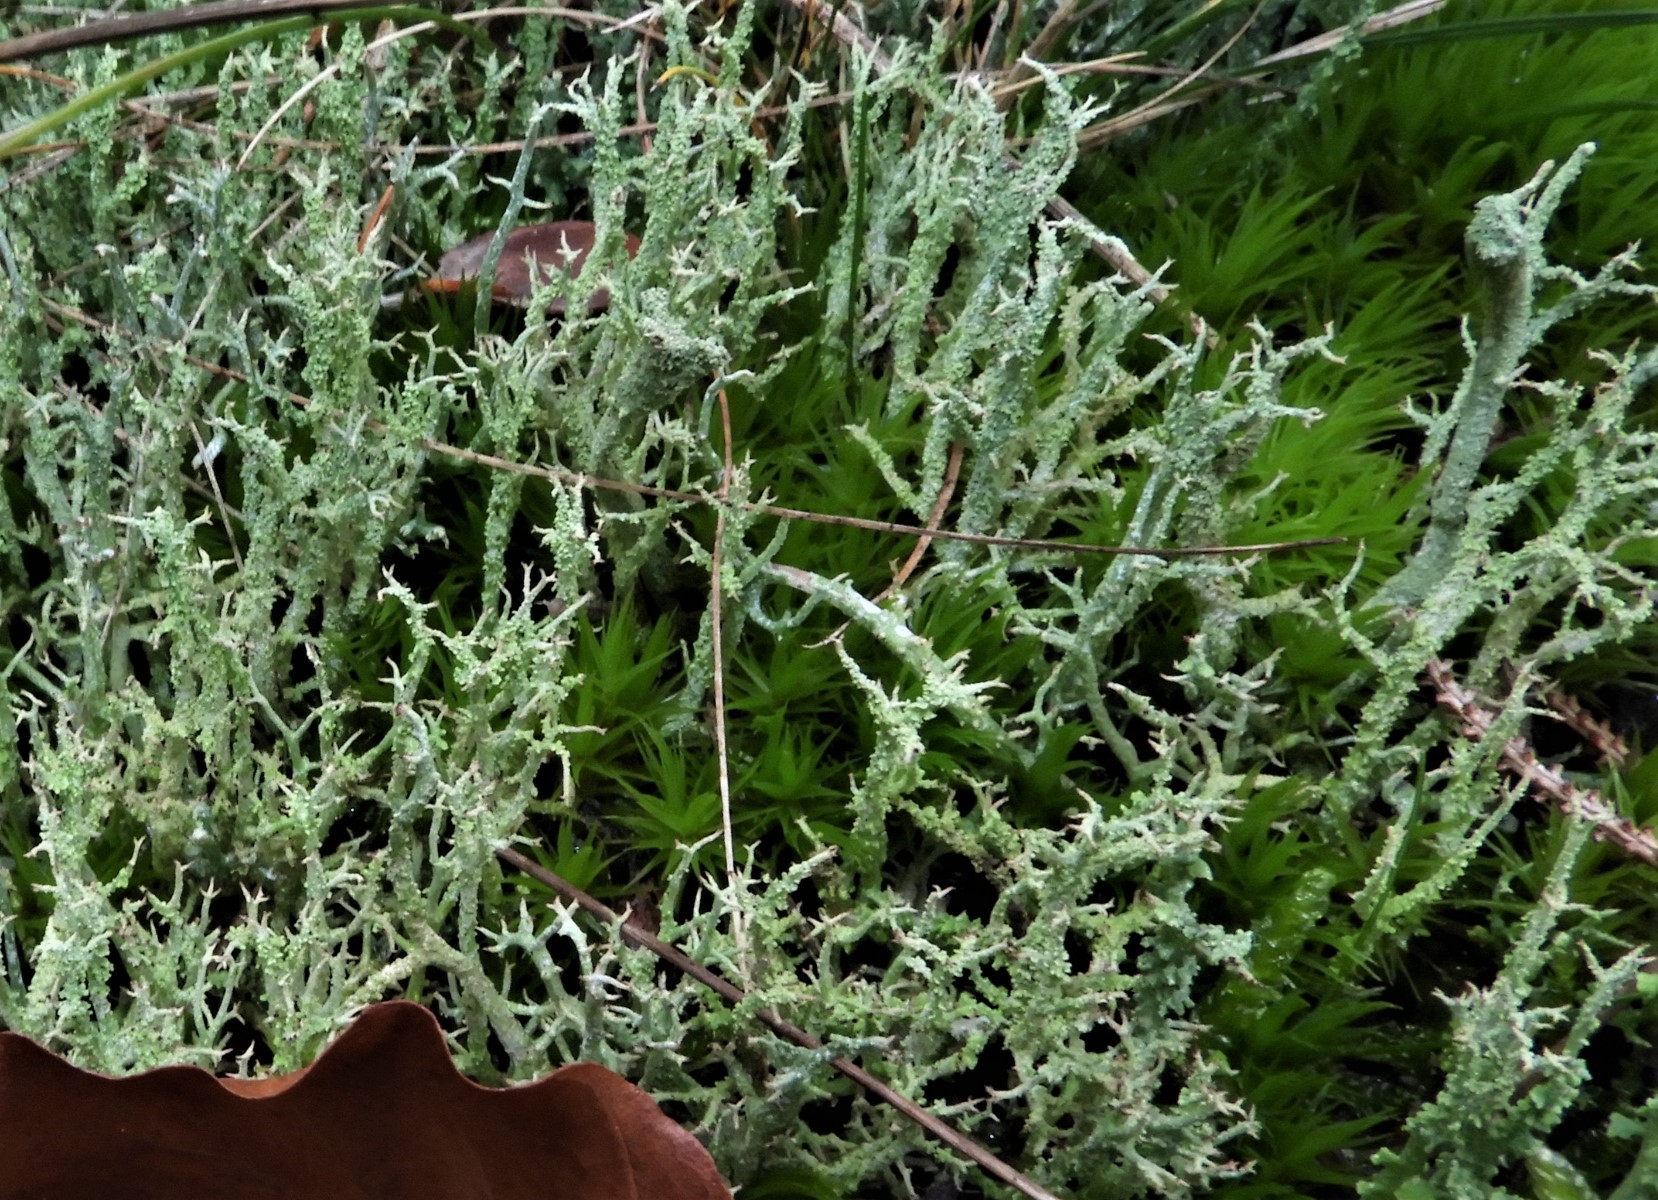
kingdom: Fungi
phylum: Ascomycota
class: Lecanoromycetes
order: Lecanorales
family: Cladoniaceae
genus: Cladonia
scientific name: Cladonia scabriuscula
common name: ru bægerlav
